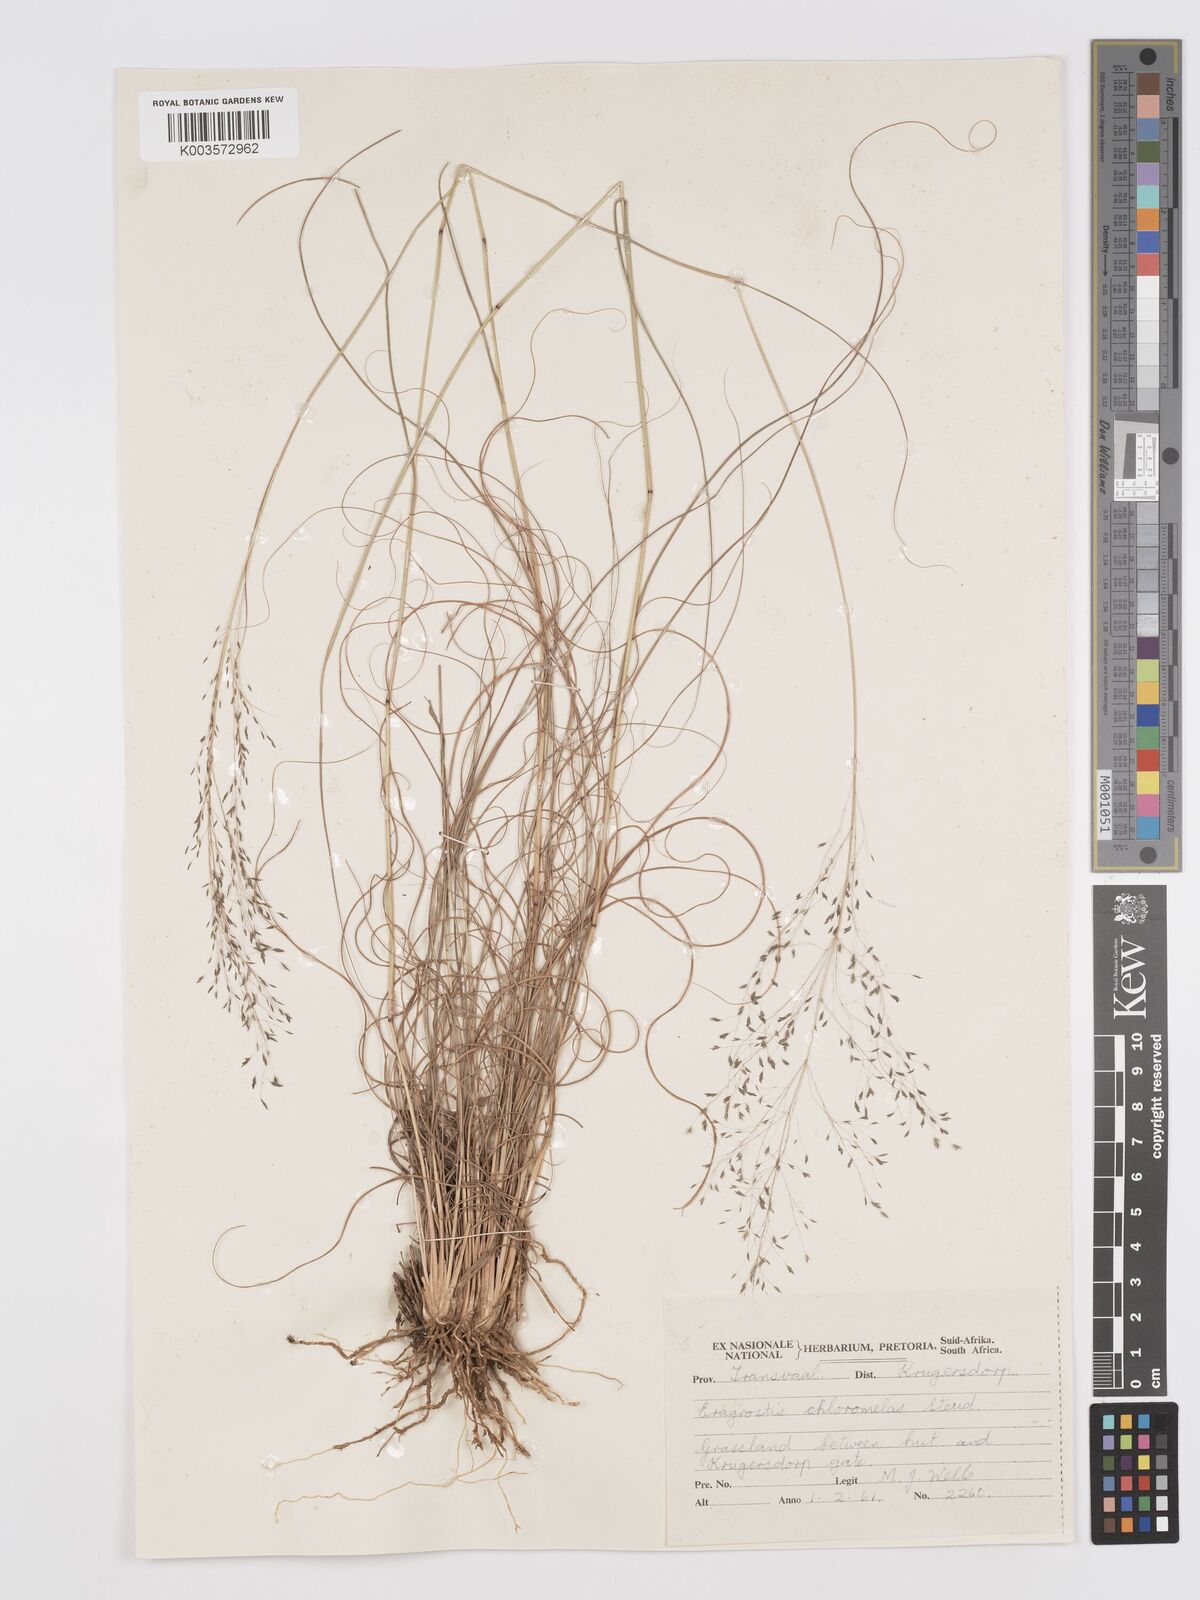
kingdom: Plantae
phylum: Tracheophyta
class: Liliopsida
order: Poales
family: Poaceae
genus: Eragrostis
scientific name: Eragrostis curvula
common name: African love-grass
